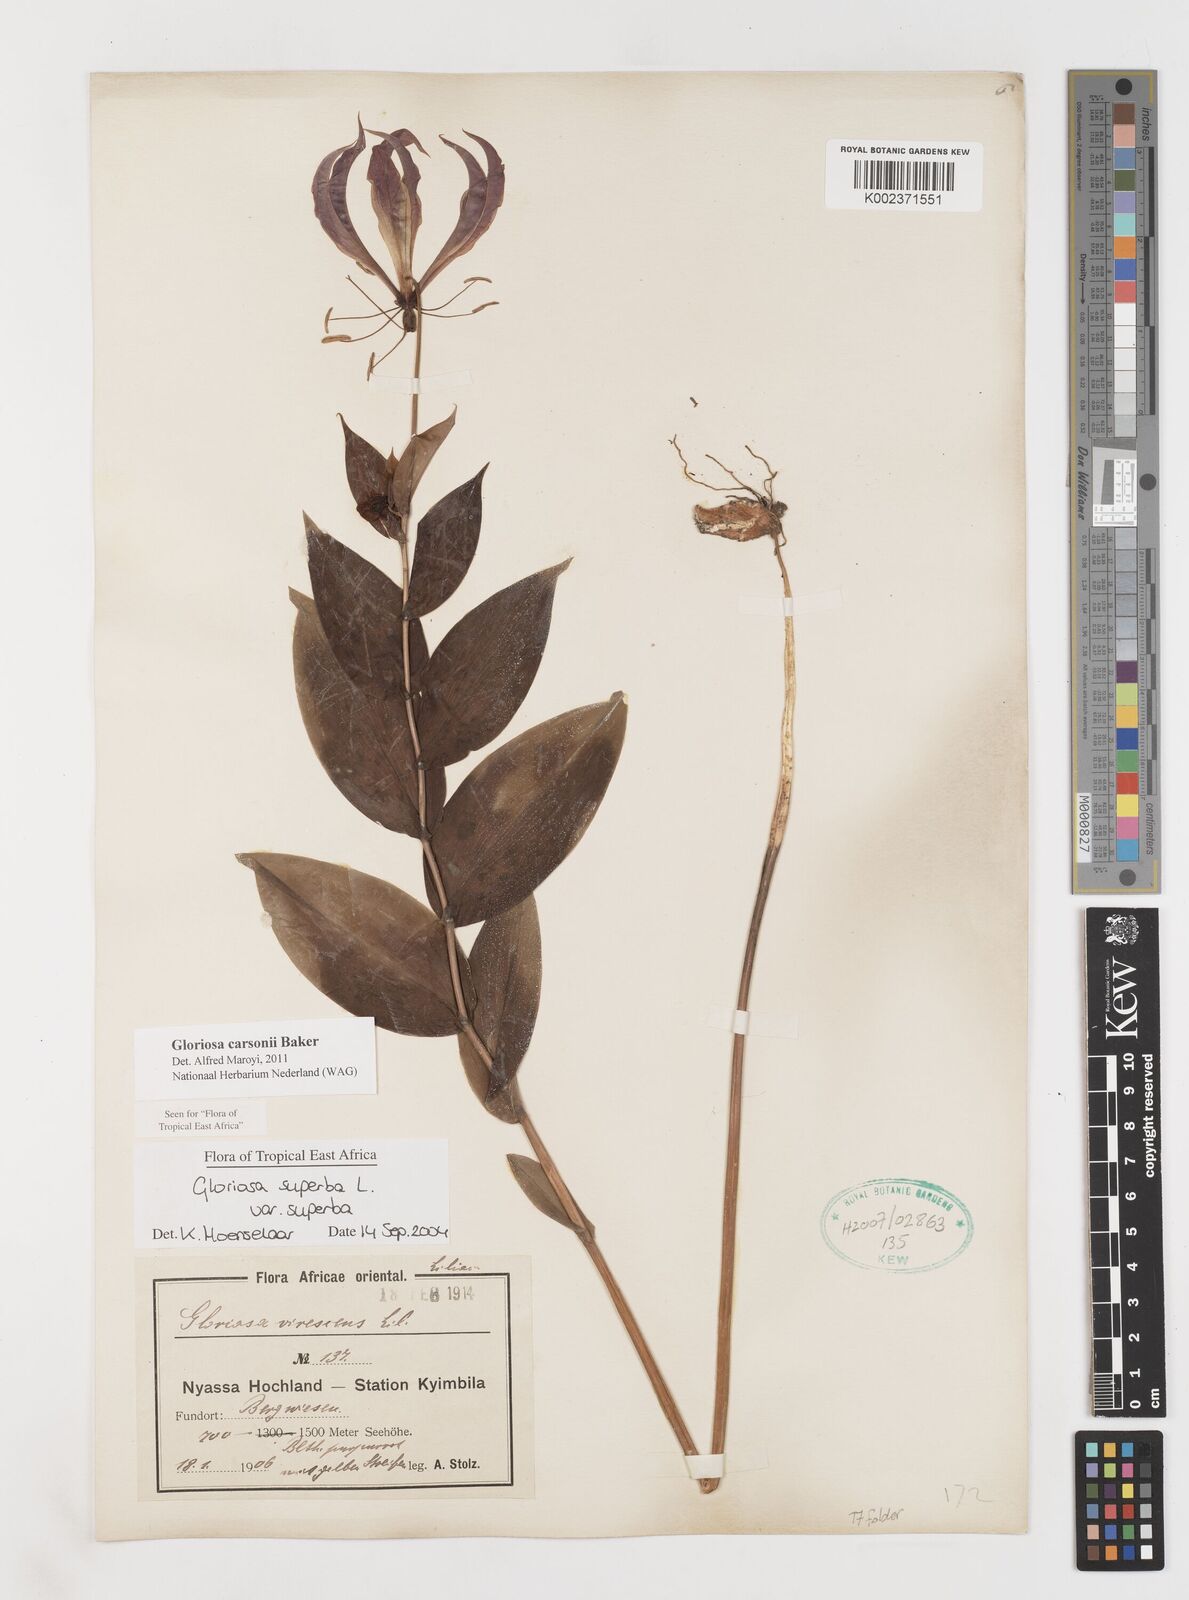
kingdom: Plantae
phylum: Tracheophyta
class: Liliopsida
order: Liliales
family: Colchicaceae
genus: Gloriosa
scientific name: Gloriosa simplex
